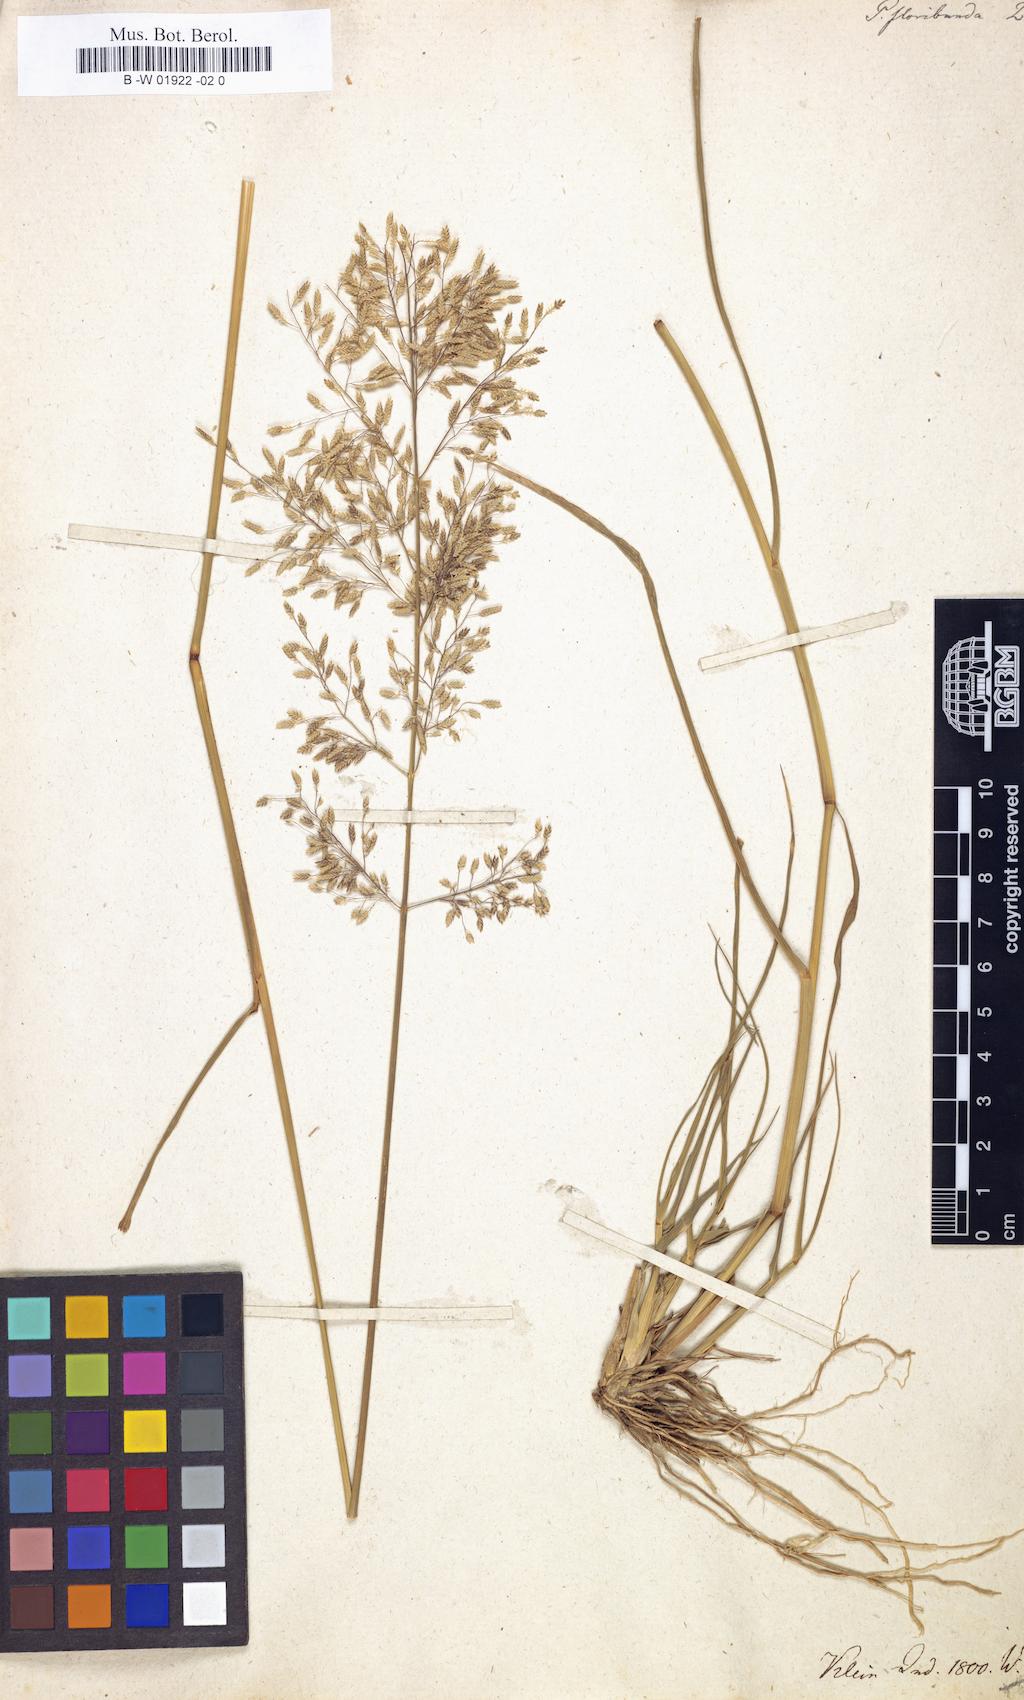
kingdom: Plantae
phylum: Tracheophyta
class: Liliopsida
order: Poales
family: Poaceae
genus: Eragrostis
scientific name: Eragrostis
